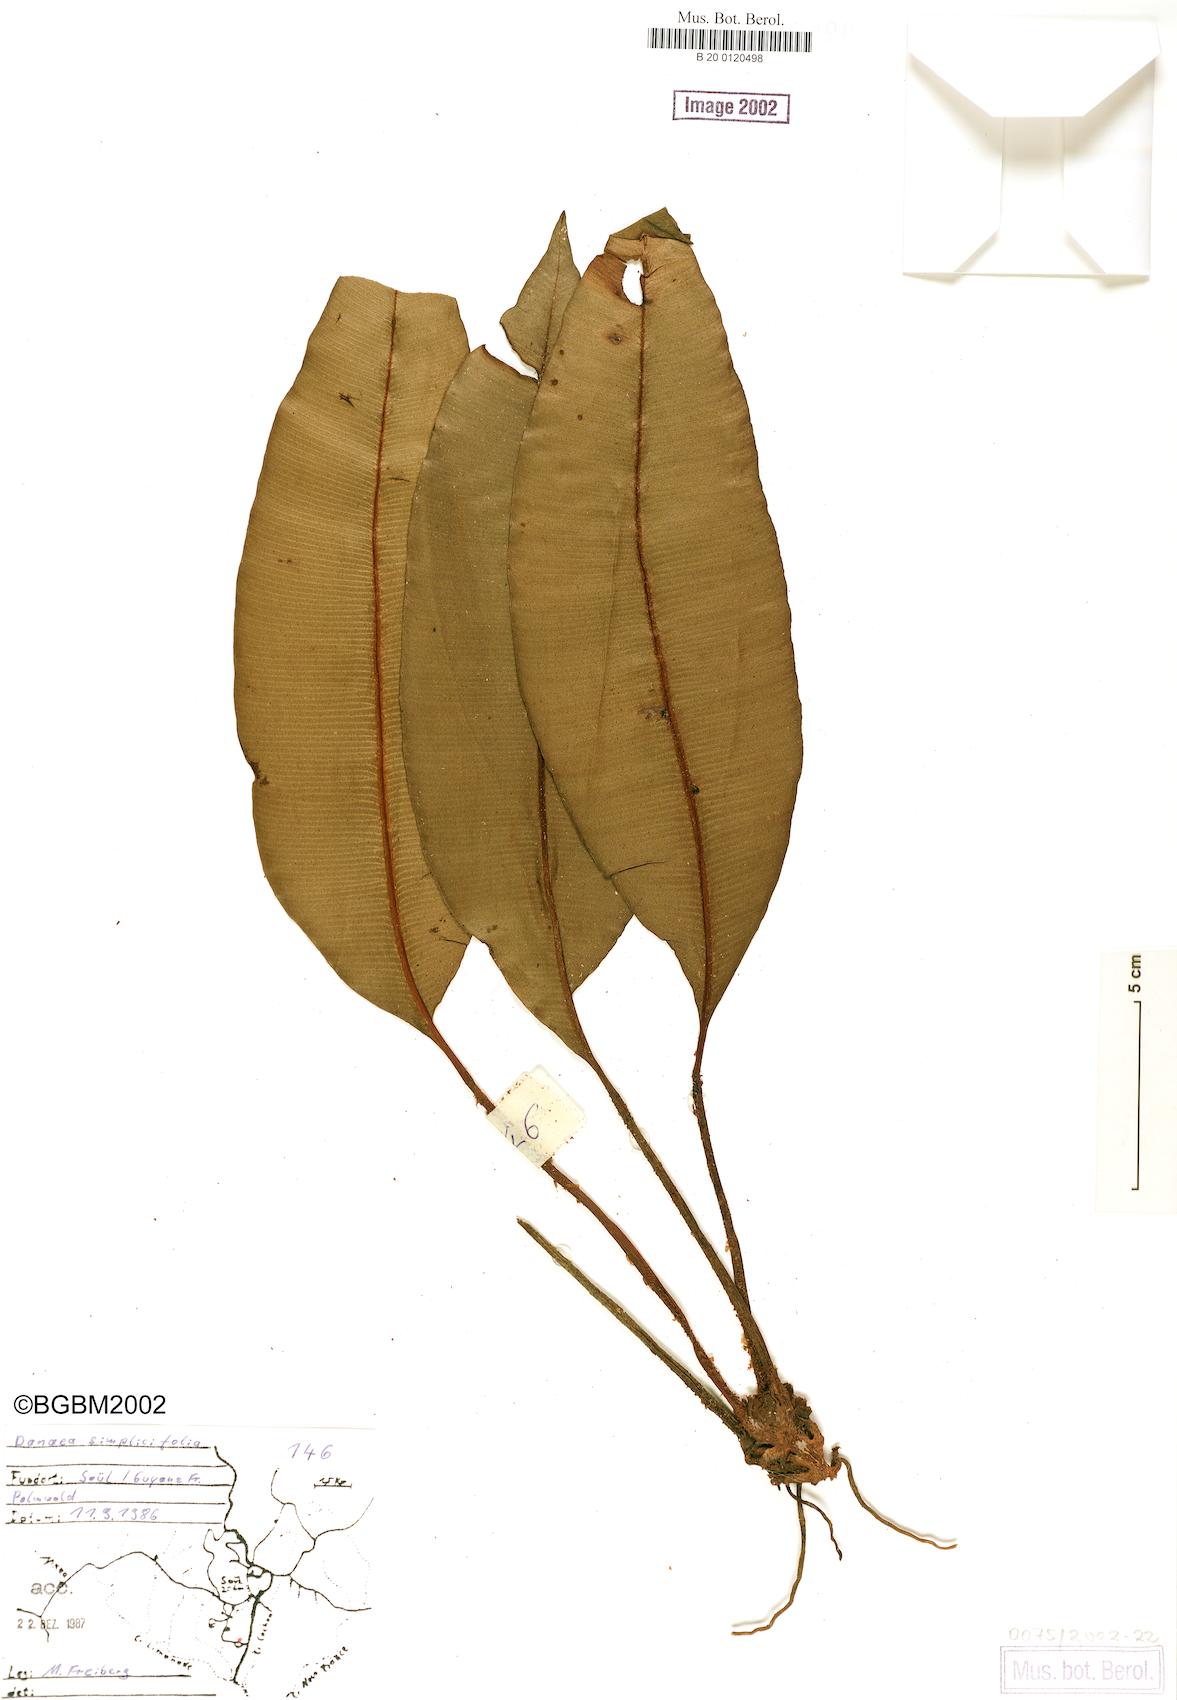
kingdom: Plantae
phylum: Tracheophyta
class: Polypodiopsida
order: Marattiales
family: Marattiaceae
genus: Danaea
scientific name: Danaea simplicifolia
